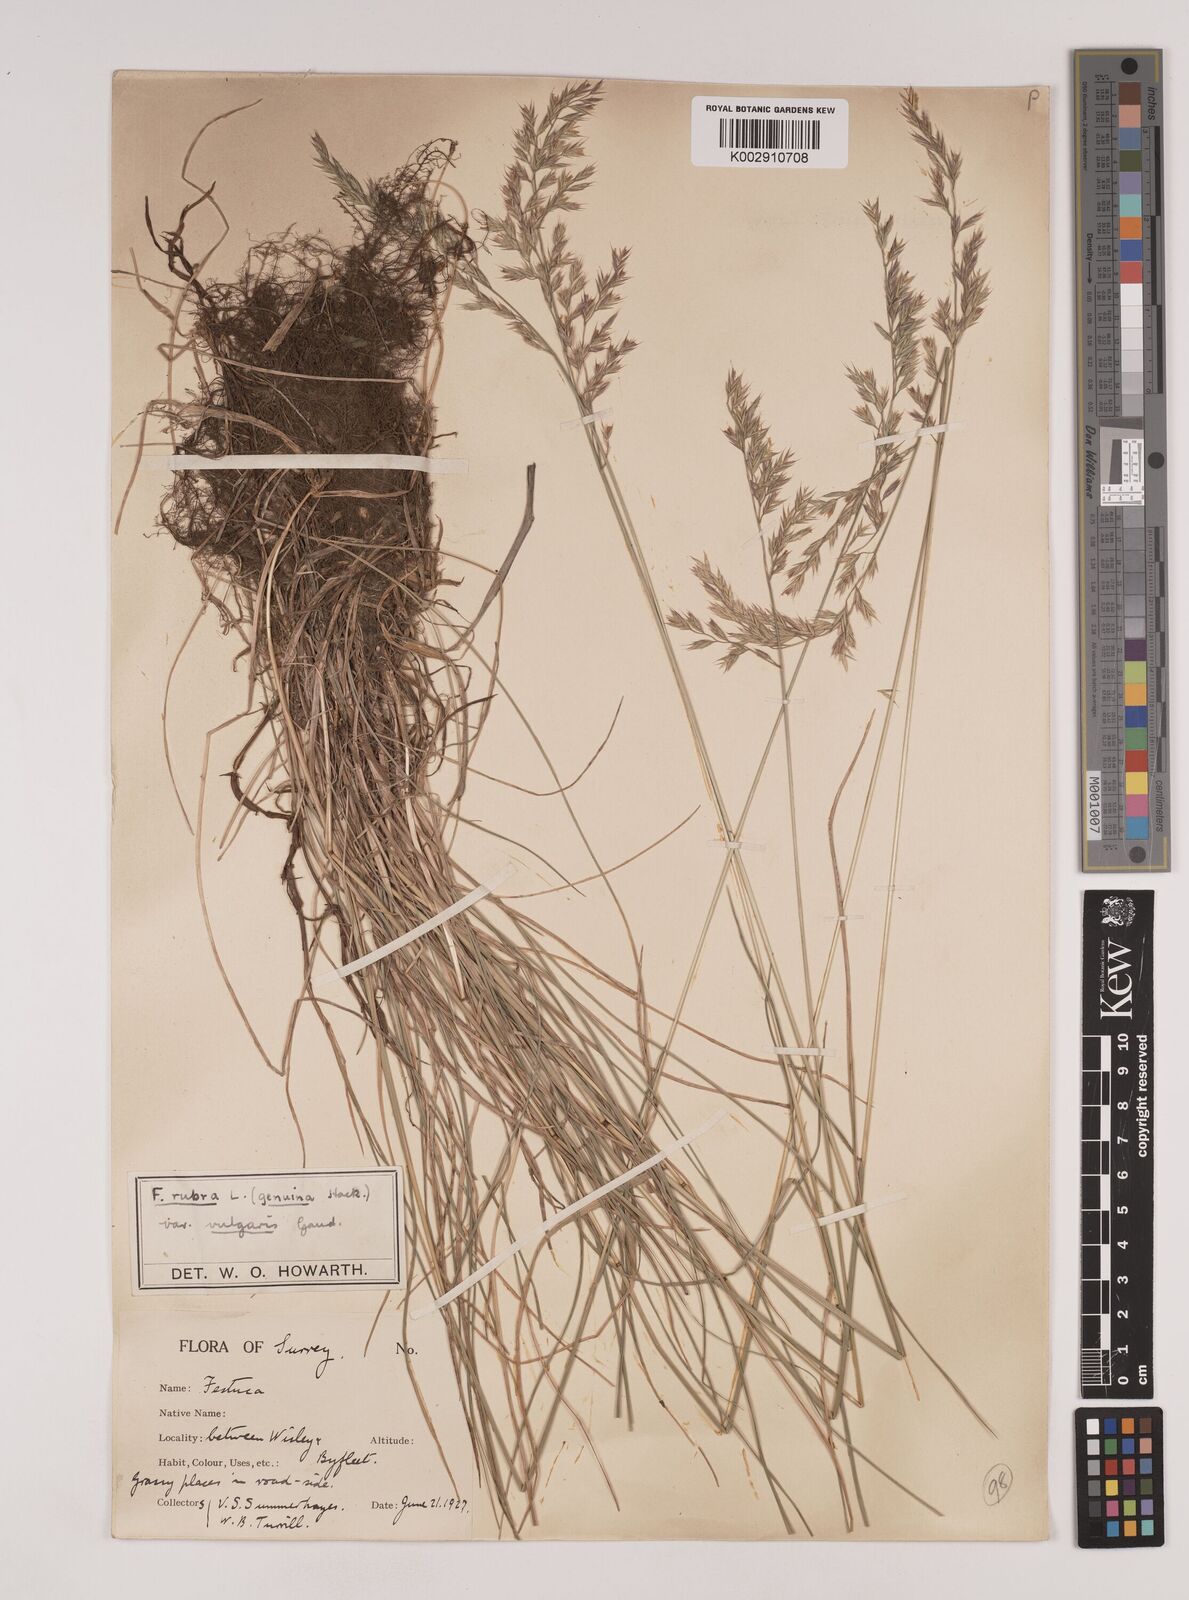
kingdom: Plantae
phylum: Tracheophyta
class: Liliopsida
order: Poales
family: Poaceae
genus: Festuca
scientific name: Festuca rubra
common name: Red fescue
